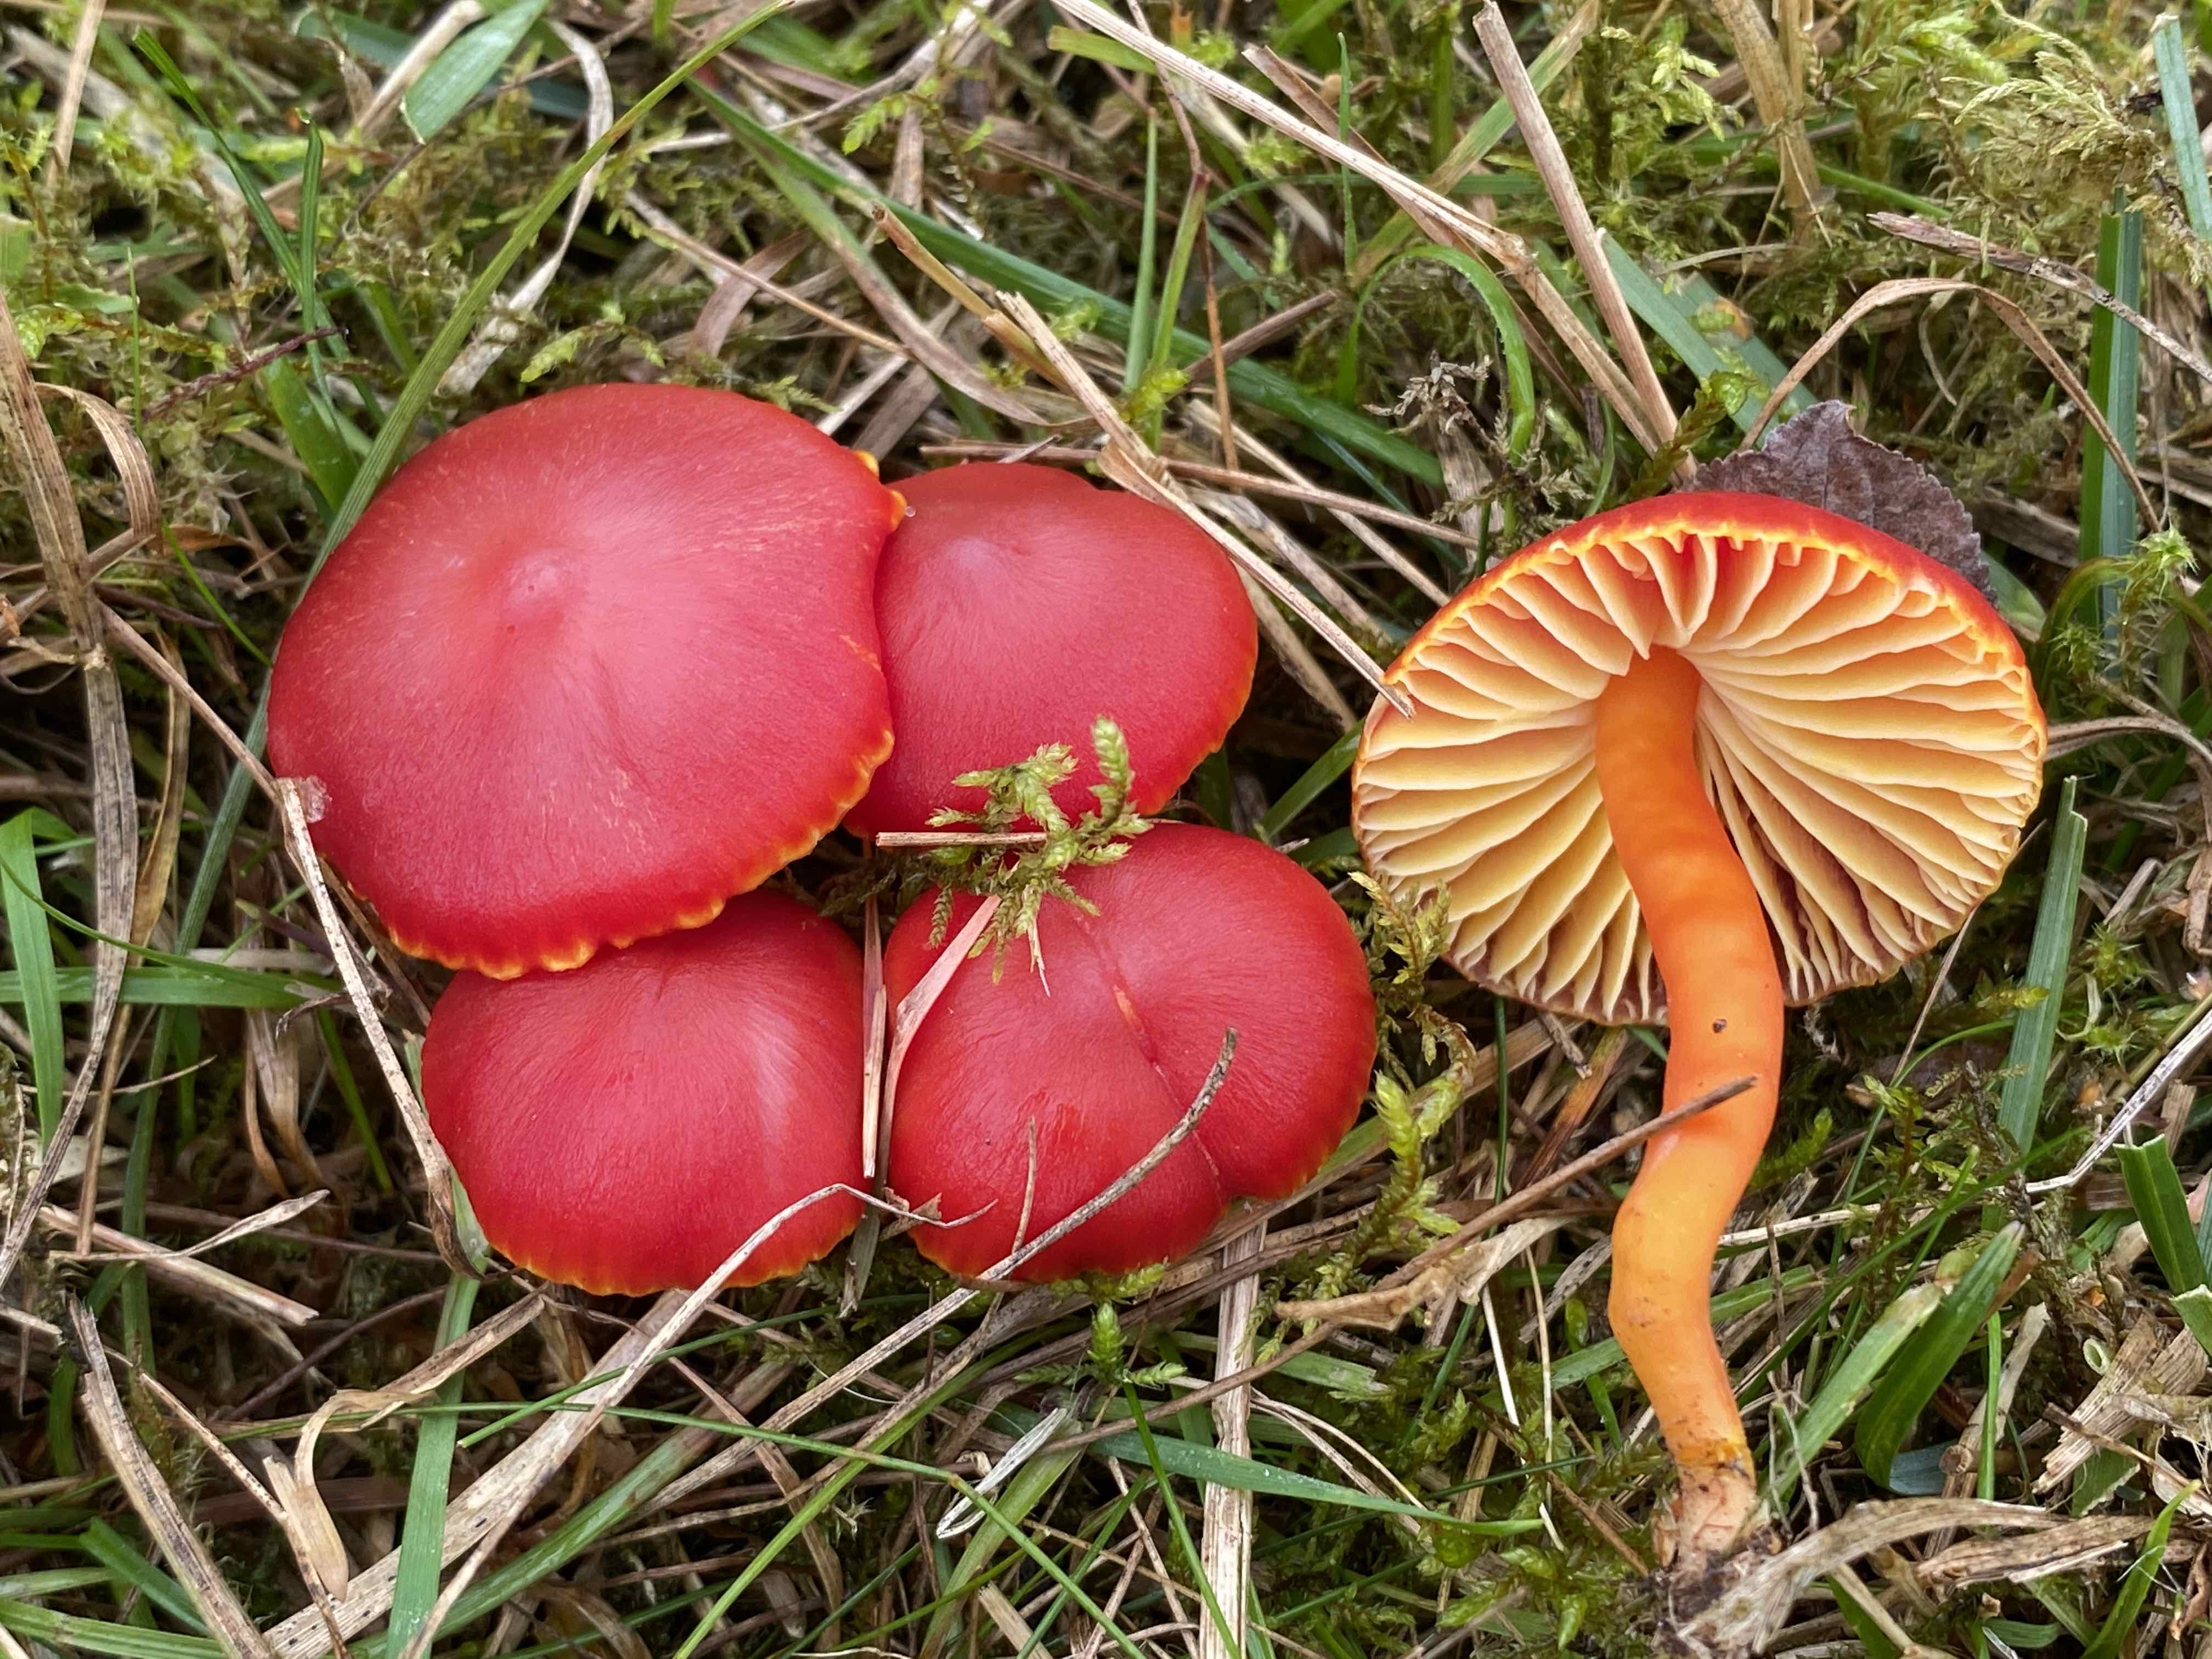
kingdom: Fungi
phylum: Basidiomycota
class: Agaricomycetes
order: Agaricales
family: Hygrophoraceae
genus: Hygrocybe
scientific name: Hygrocybe coccinea
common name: cinnober-vokshat
